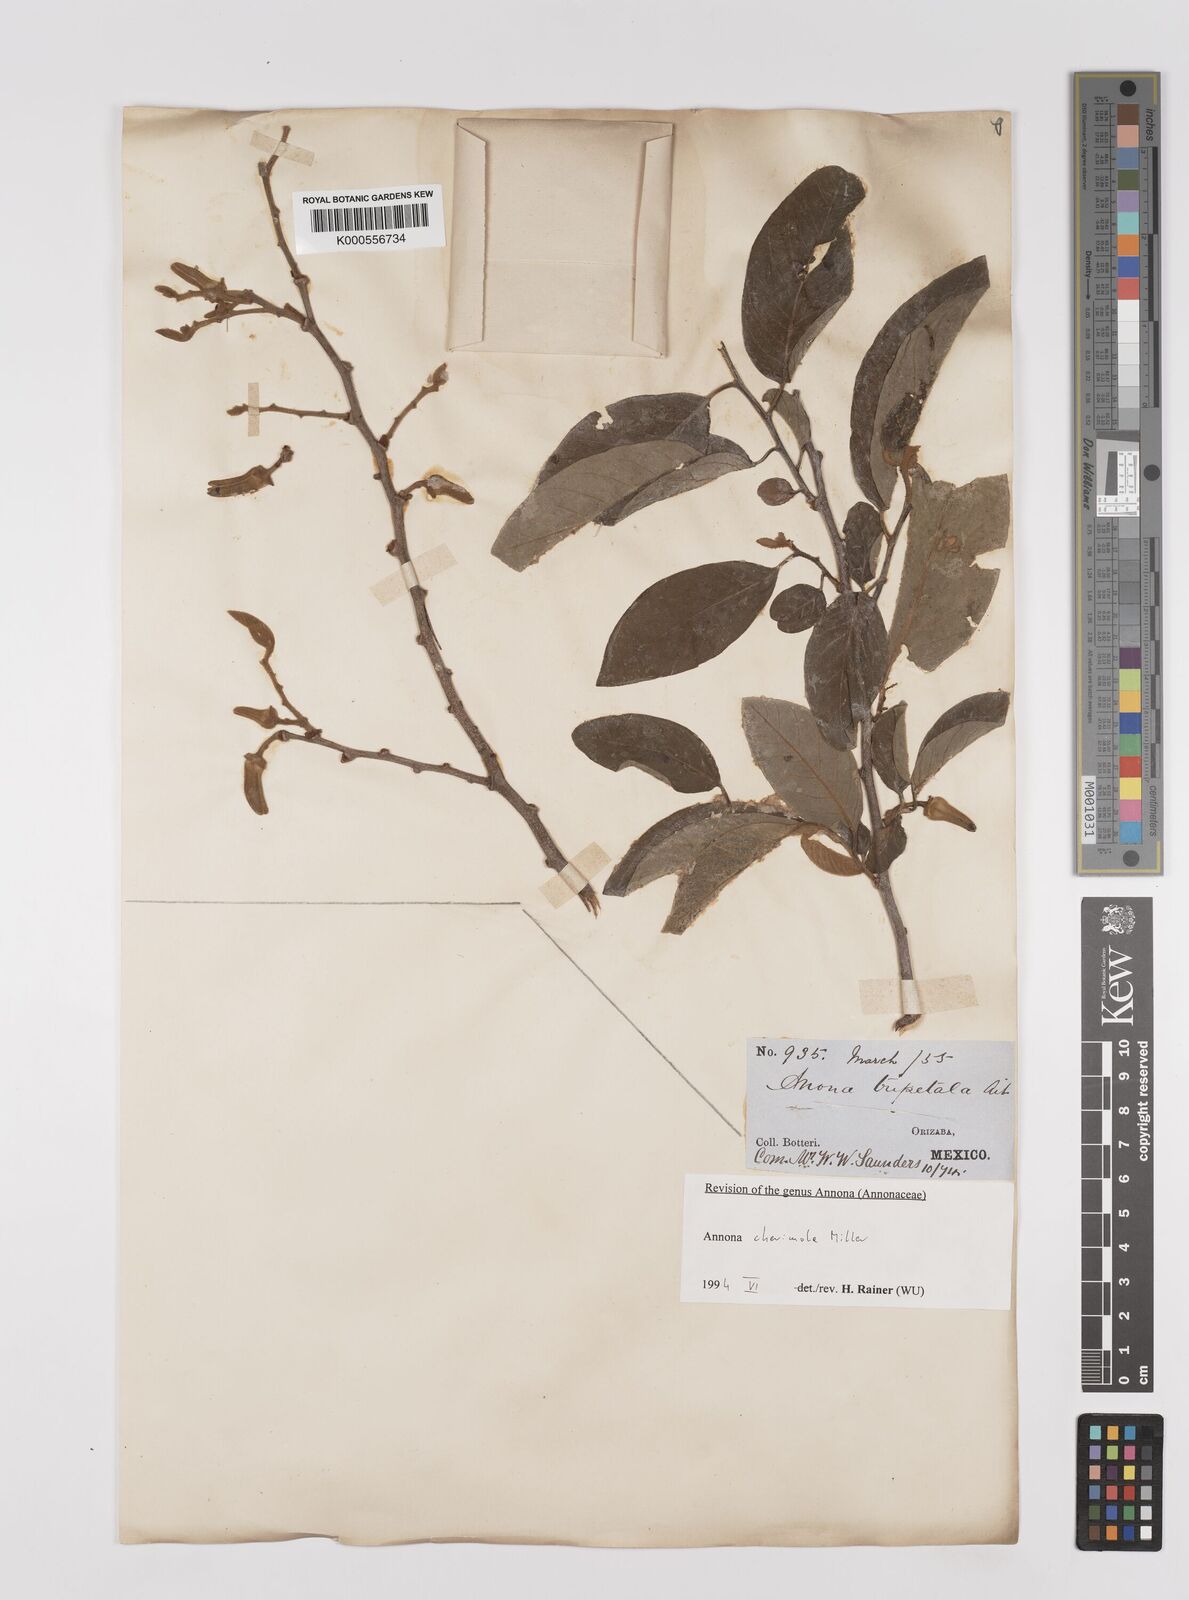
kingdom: Plantae
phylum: Tracheophyta
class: Magnoliopsida
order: Magnoliales
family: Annonaceae
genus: Annona
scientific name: Annona cherimola
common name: Cherimoya
